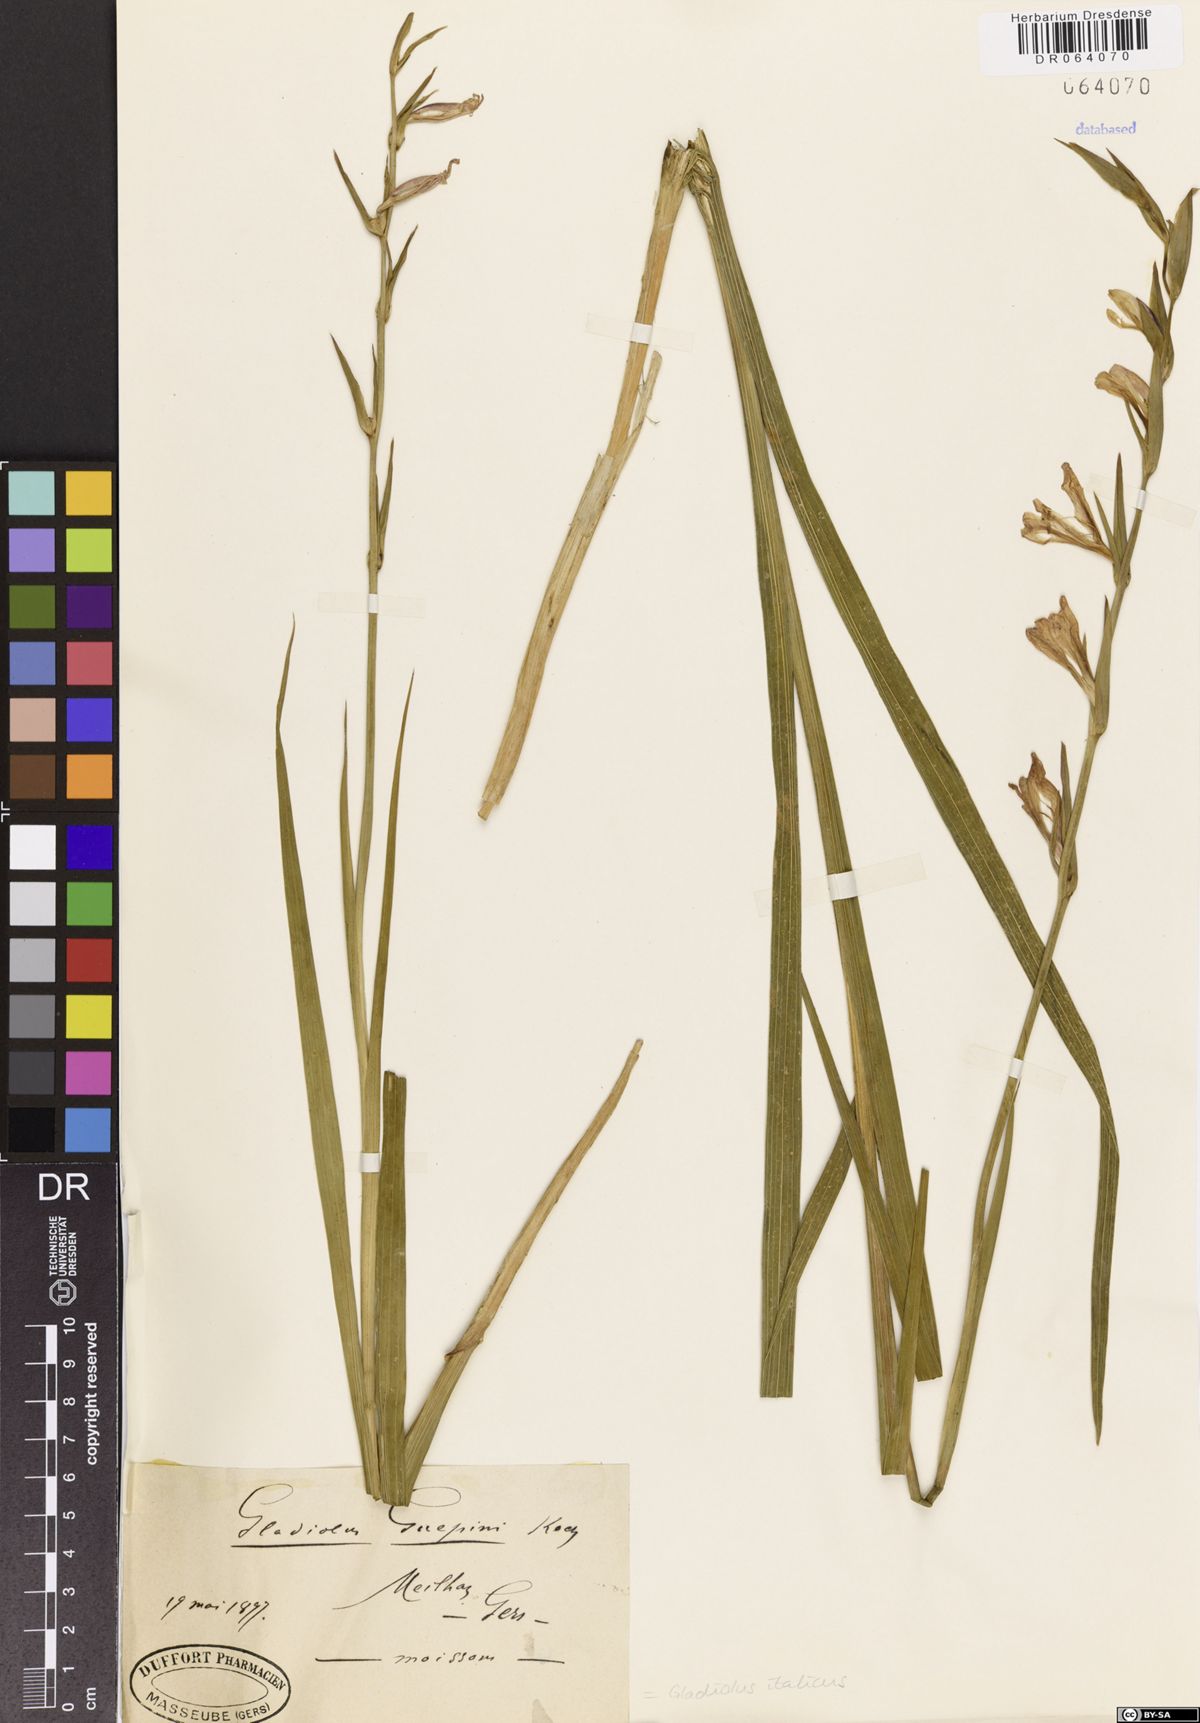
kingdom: Plantae
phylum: Tracheophyta
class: Liliopsida
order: Asparagales
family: Iridaceae
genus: Gladiolus
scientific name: Gladiolus italicus
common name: Field gladiolus
